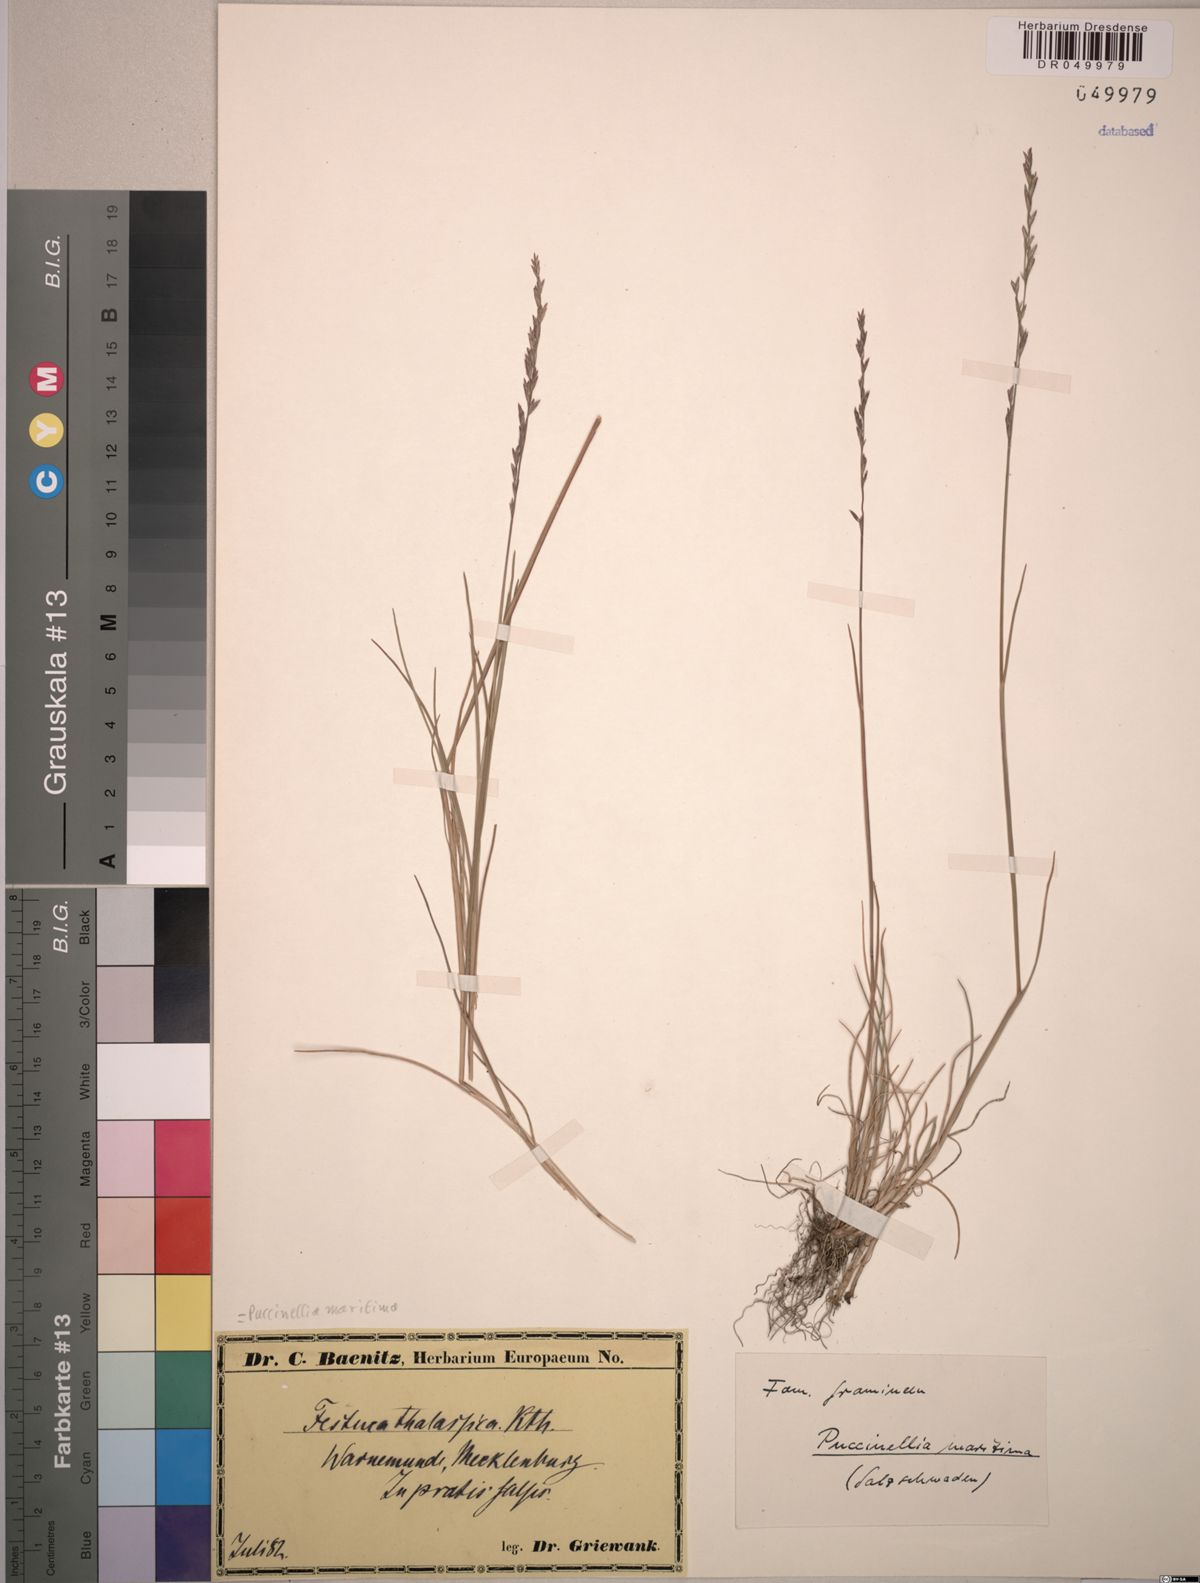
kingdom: Plantae
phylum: Tracheophyta
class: Liliopsida
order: Poales
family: Poaceae
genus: Puccinellia
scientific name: Puccinellia maritima
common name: Common saltmarsh grass
